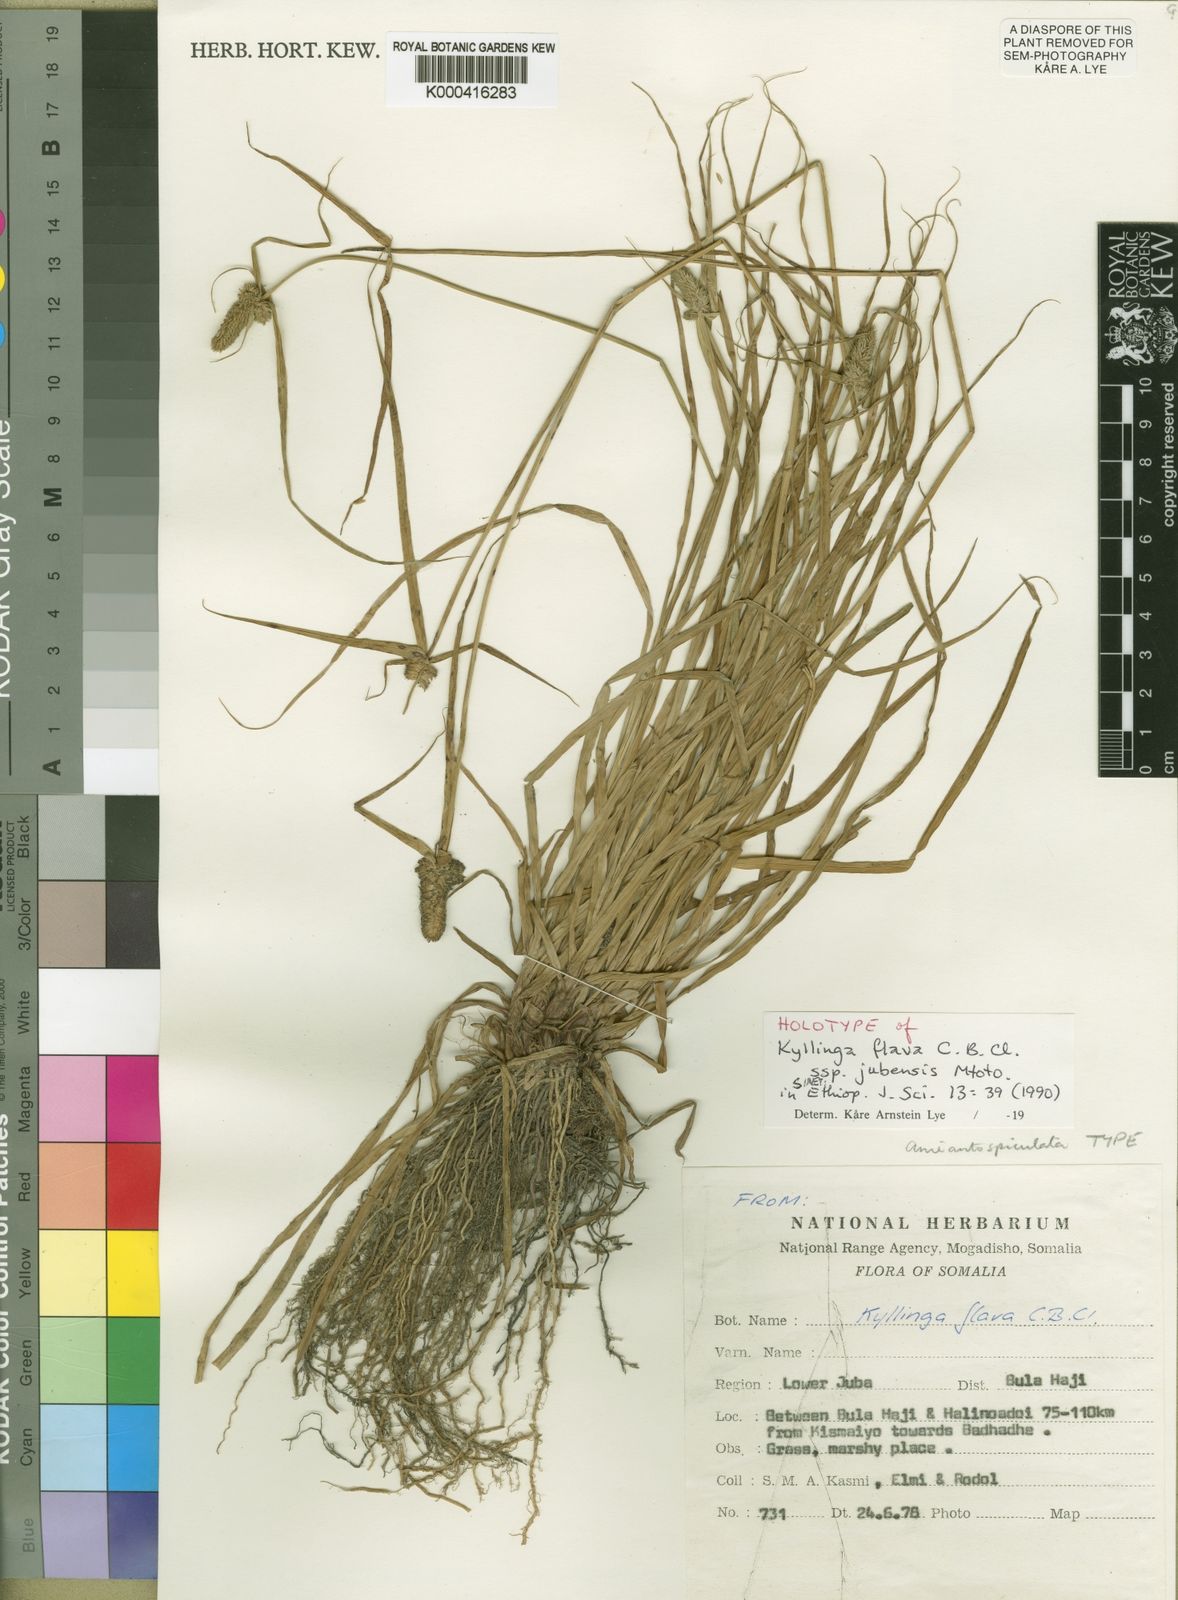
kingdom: Plantae
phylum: Tracheophyta
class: Liliopsida
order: Poales
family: Cyperaceae
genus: Cyperus
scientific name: Cyperus costatus
